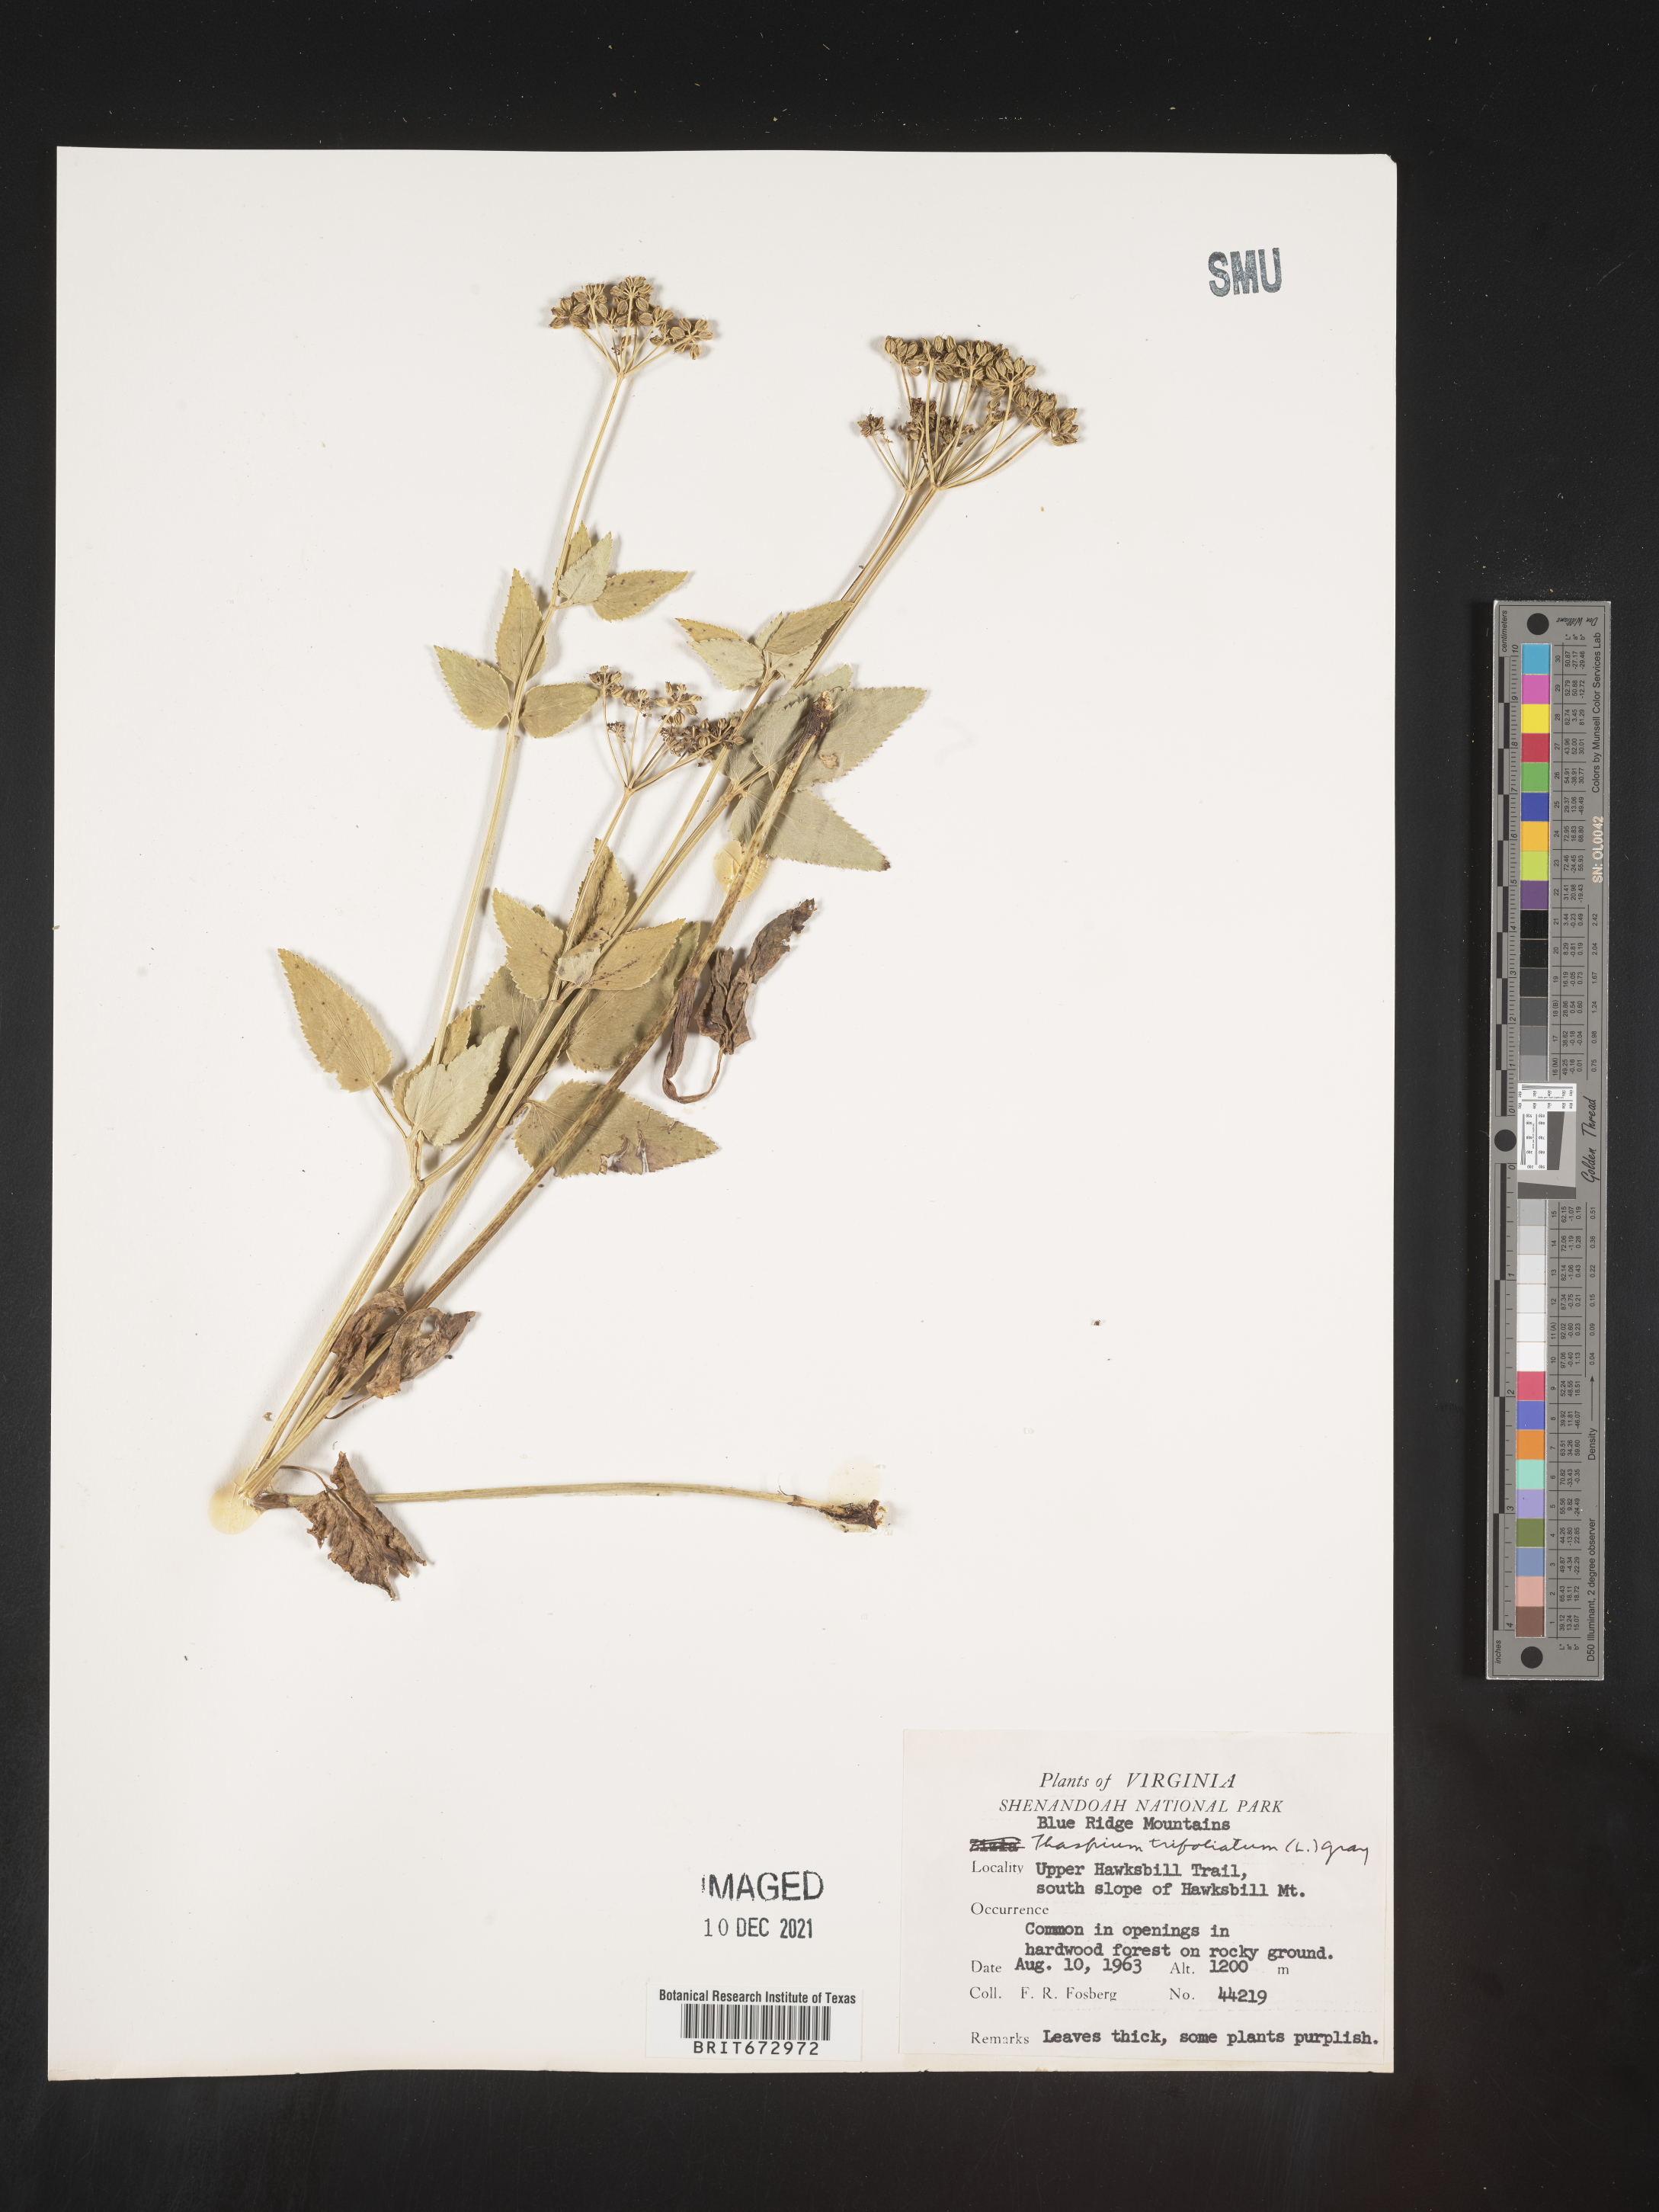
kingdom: Plantae
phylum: Tracheophyta
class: Magnoliopsida
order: Apiales
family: Apiaceae
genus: Thaspium
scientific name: Thaspium
